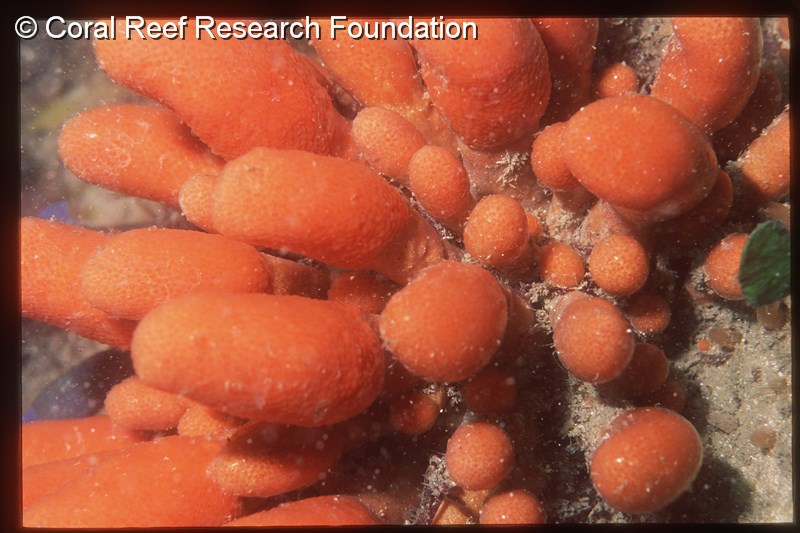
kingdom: Animalia
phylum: Chordata
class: Ascidiacea
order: Aplousobranchia
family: Pseudodistomidae
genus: Pseudodistoma
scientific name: Pseudodistoma africanum
